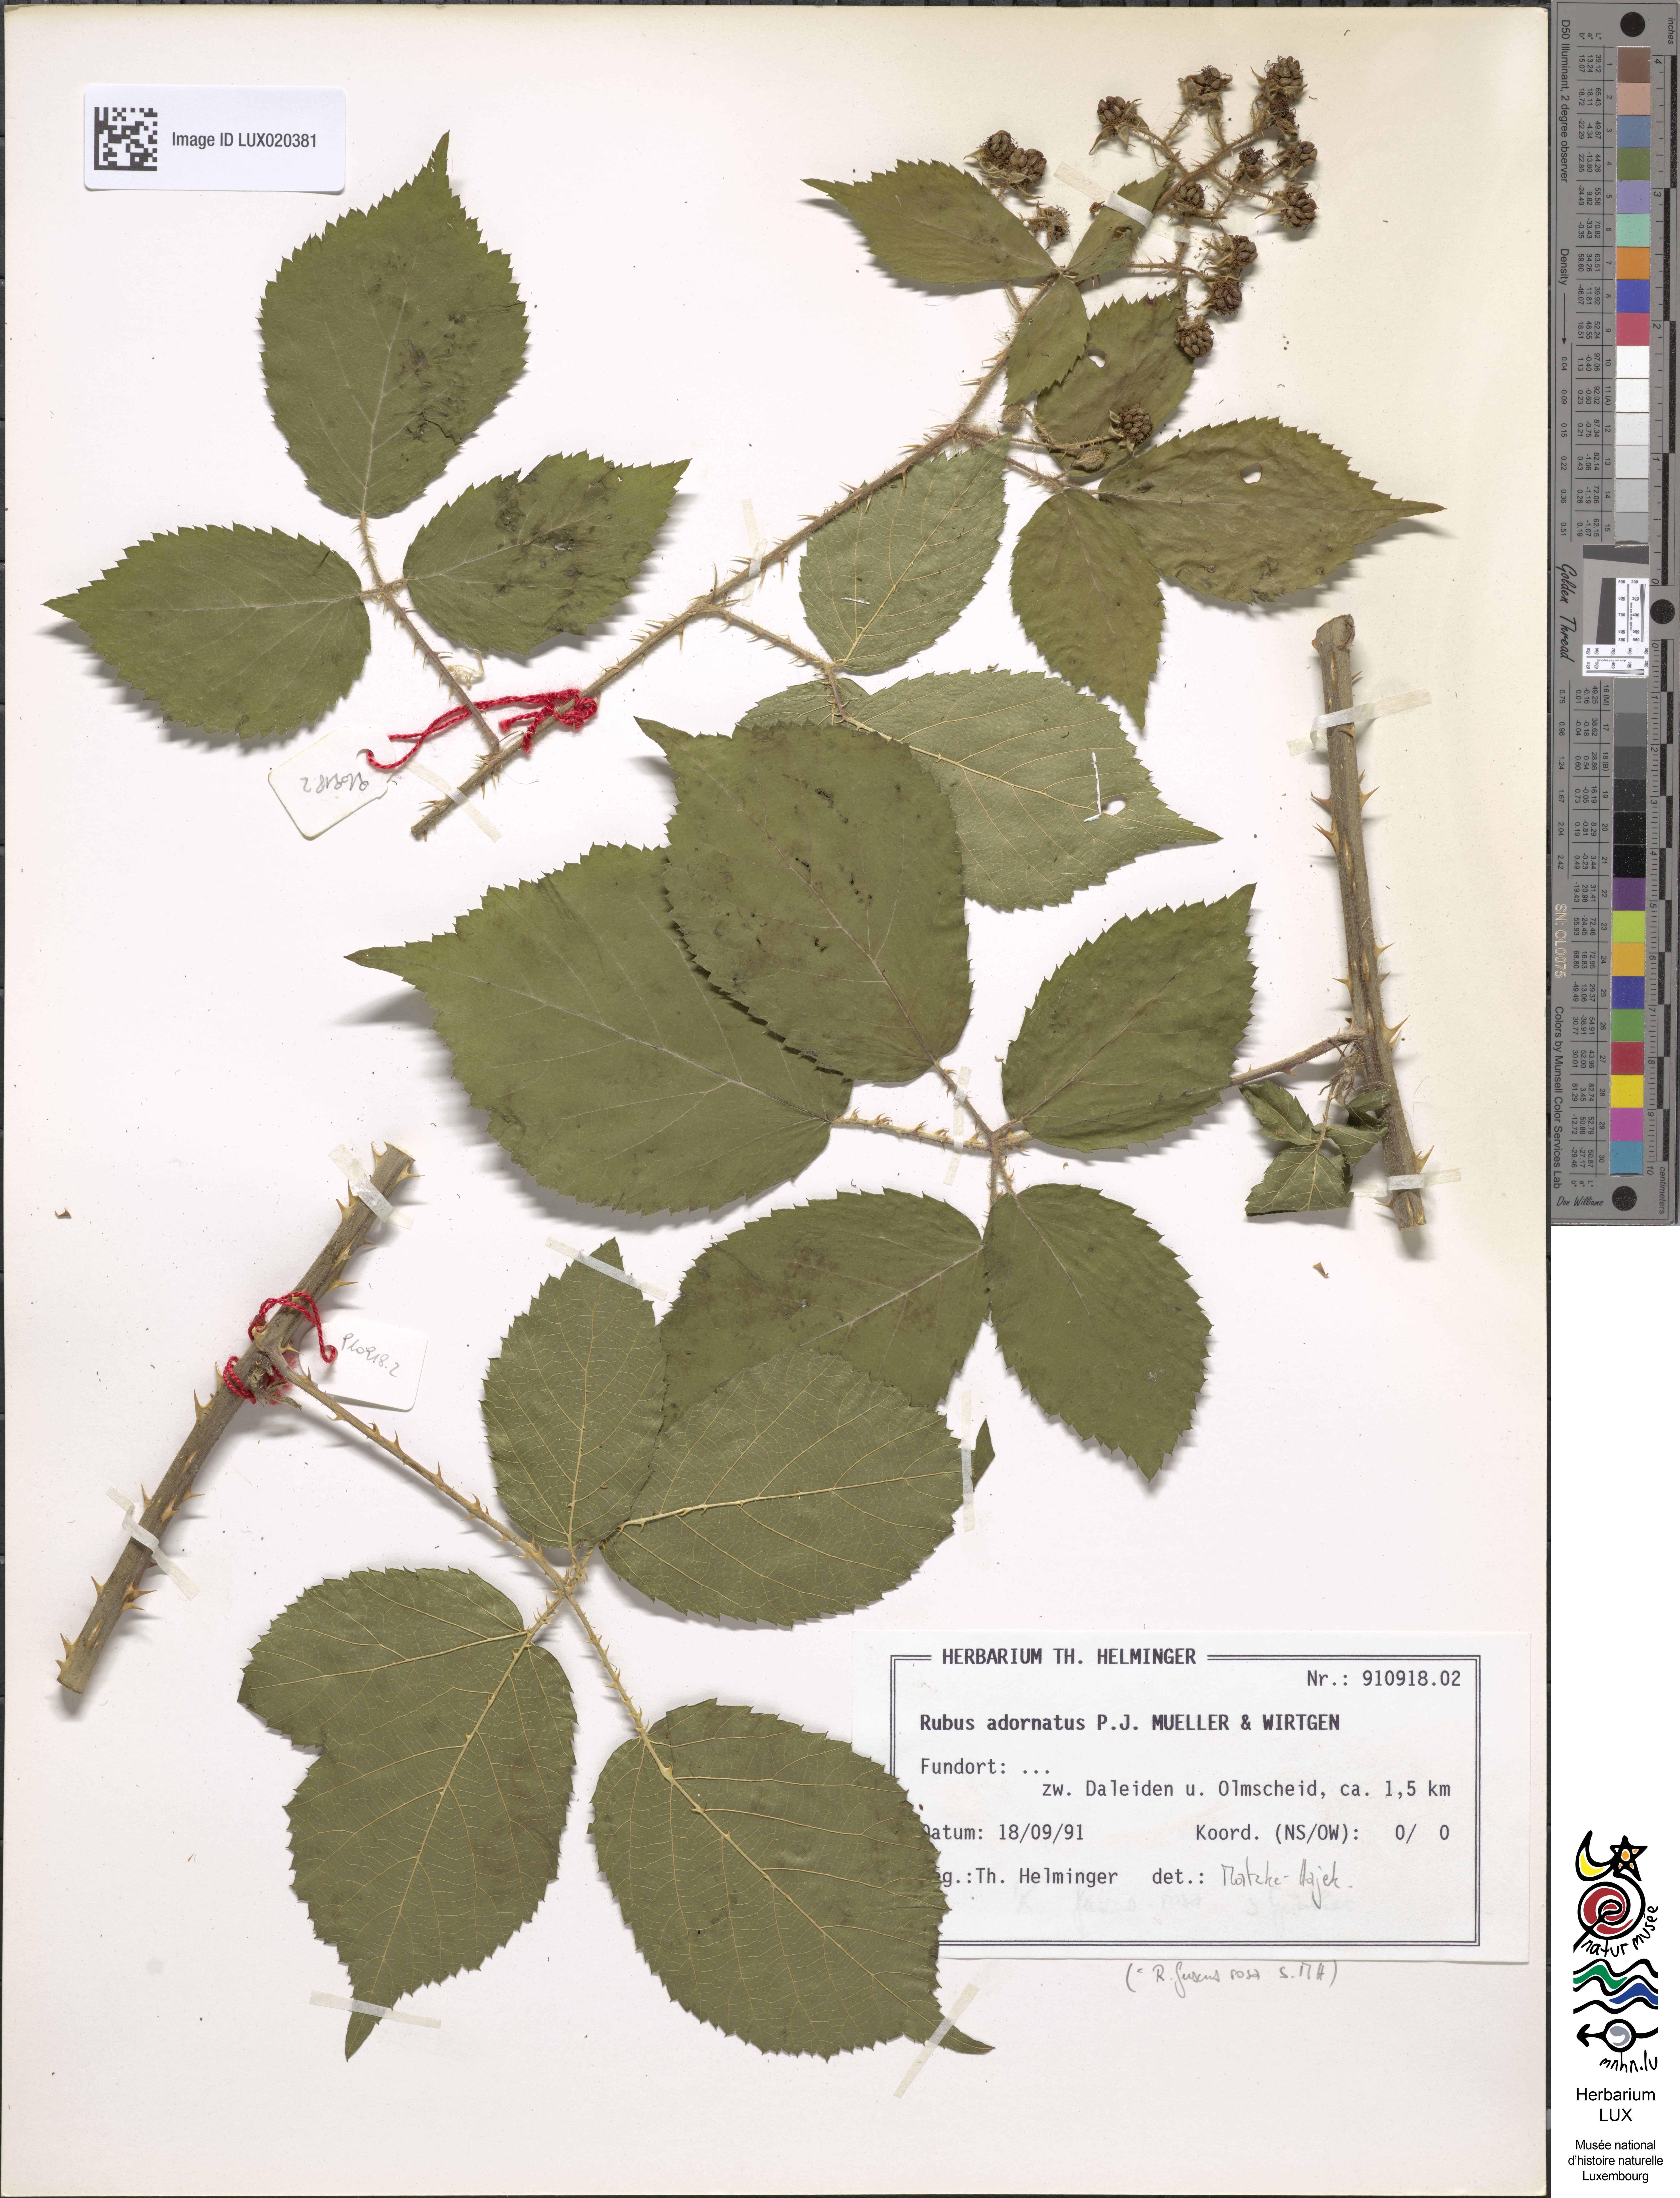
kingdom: Plantae
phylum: Tracheophyta
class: Magnoliopsida
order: Rosales
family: Rosaceae
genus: Rubus
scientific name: Rubus
